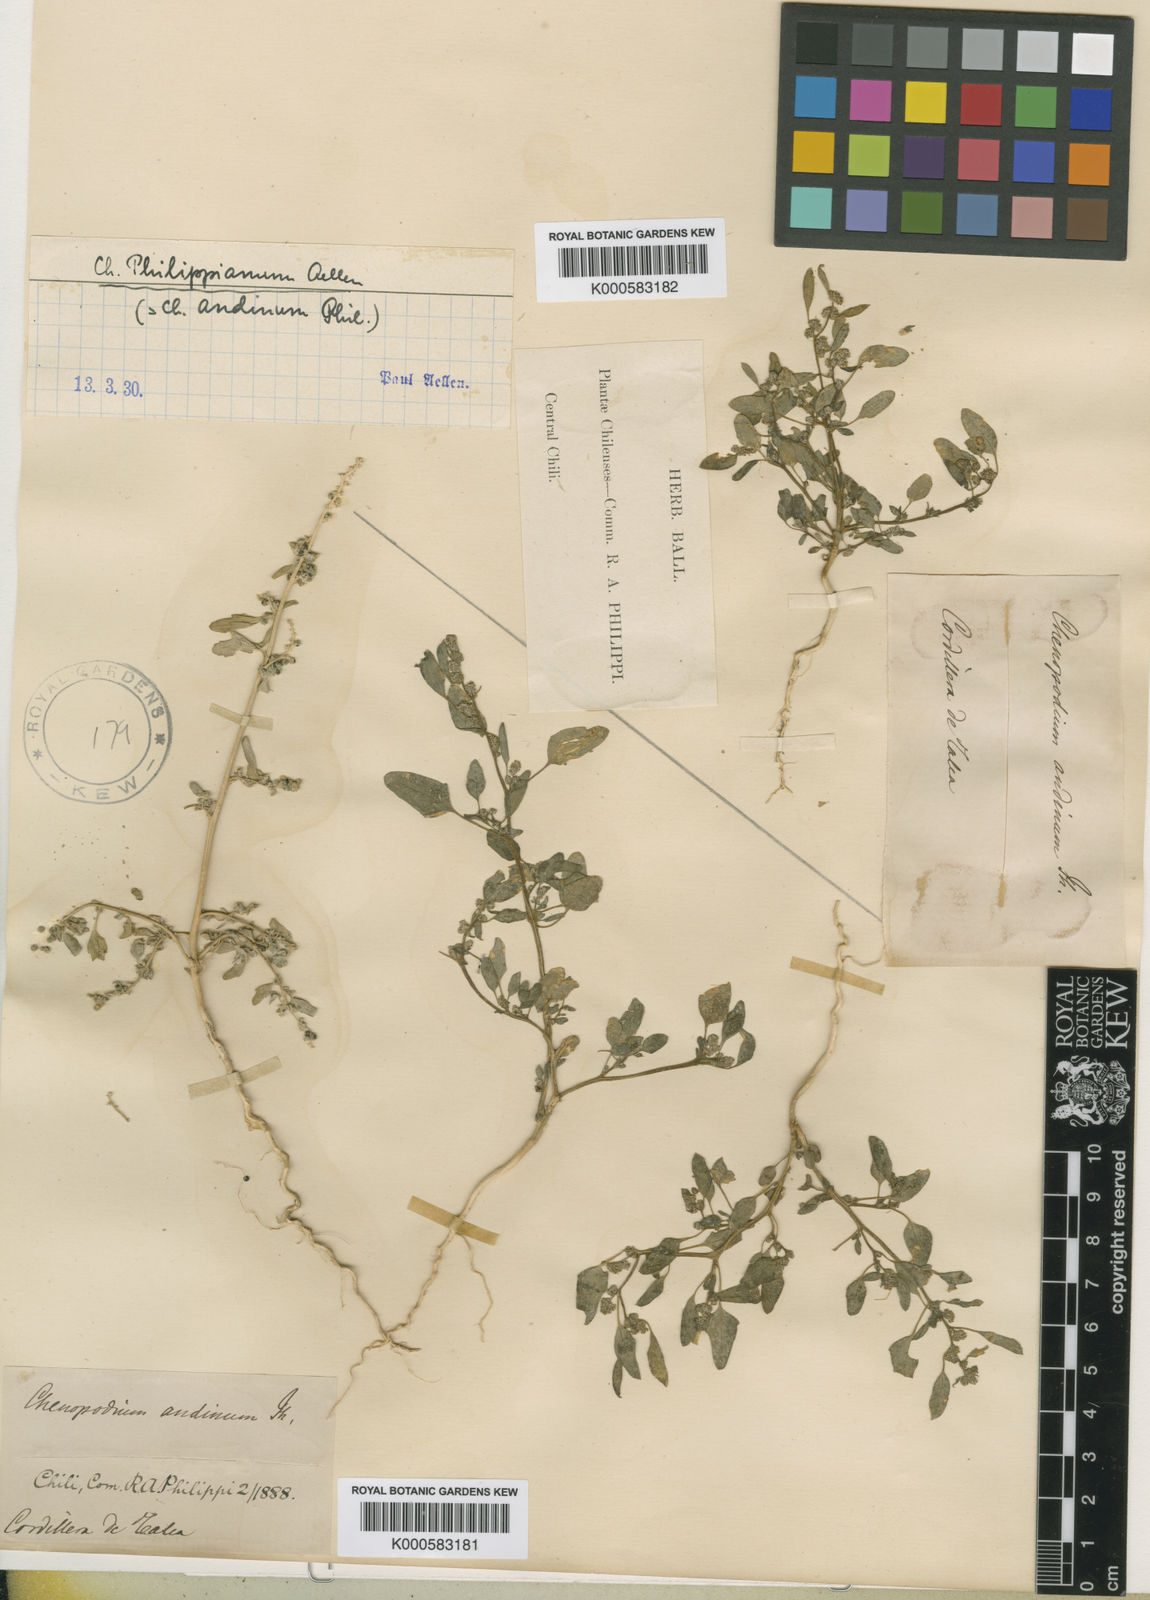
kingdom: Plantae
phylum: Tracheophyta
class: Magnoliopsida
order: Caryophyllales
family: Amaranthaceae
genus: Chenopodium
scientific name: Chenopodium philippianum
